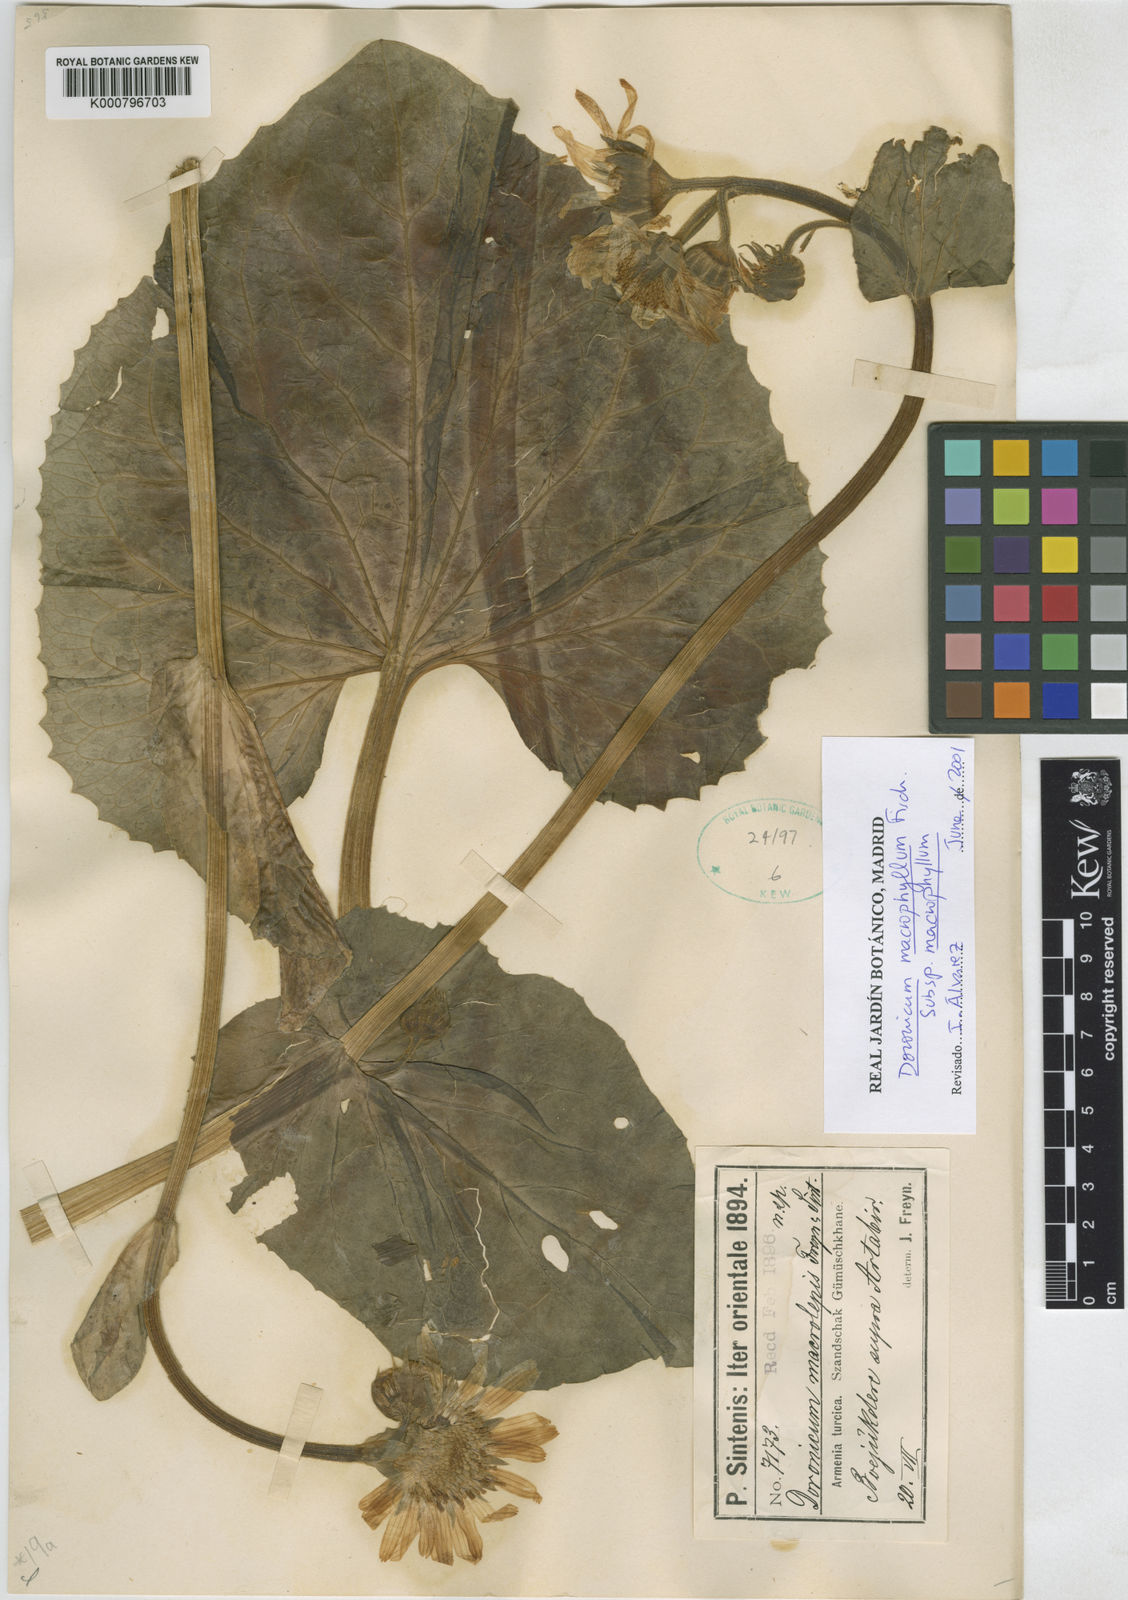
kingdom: Plantae
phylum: Tracheophyta
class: Magnoliopsida
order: Asterales
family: Asteraceae
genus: Doronicum
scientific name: Doronicum macrophyllum
